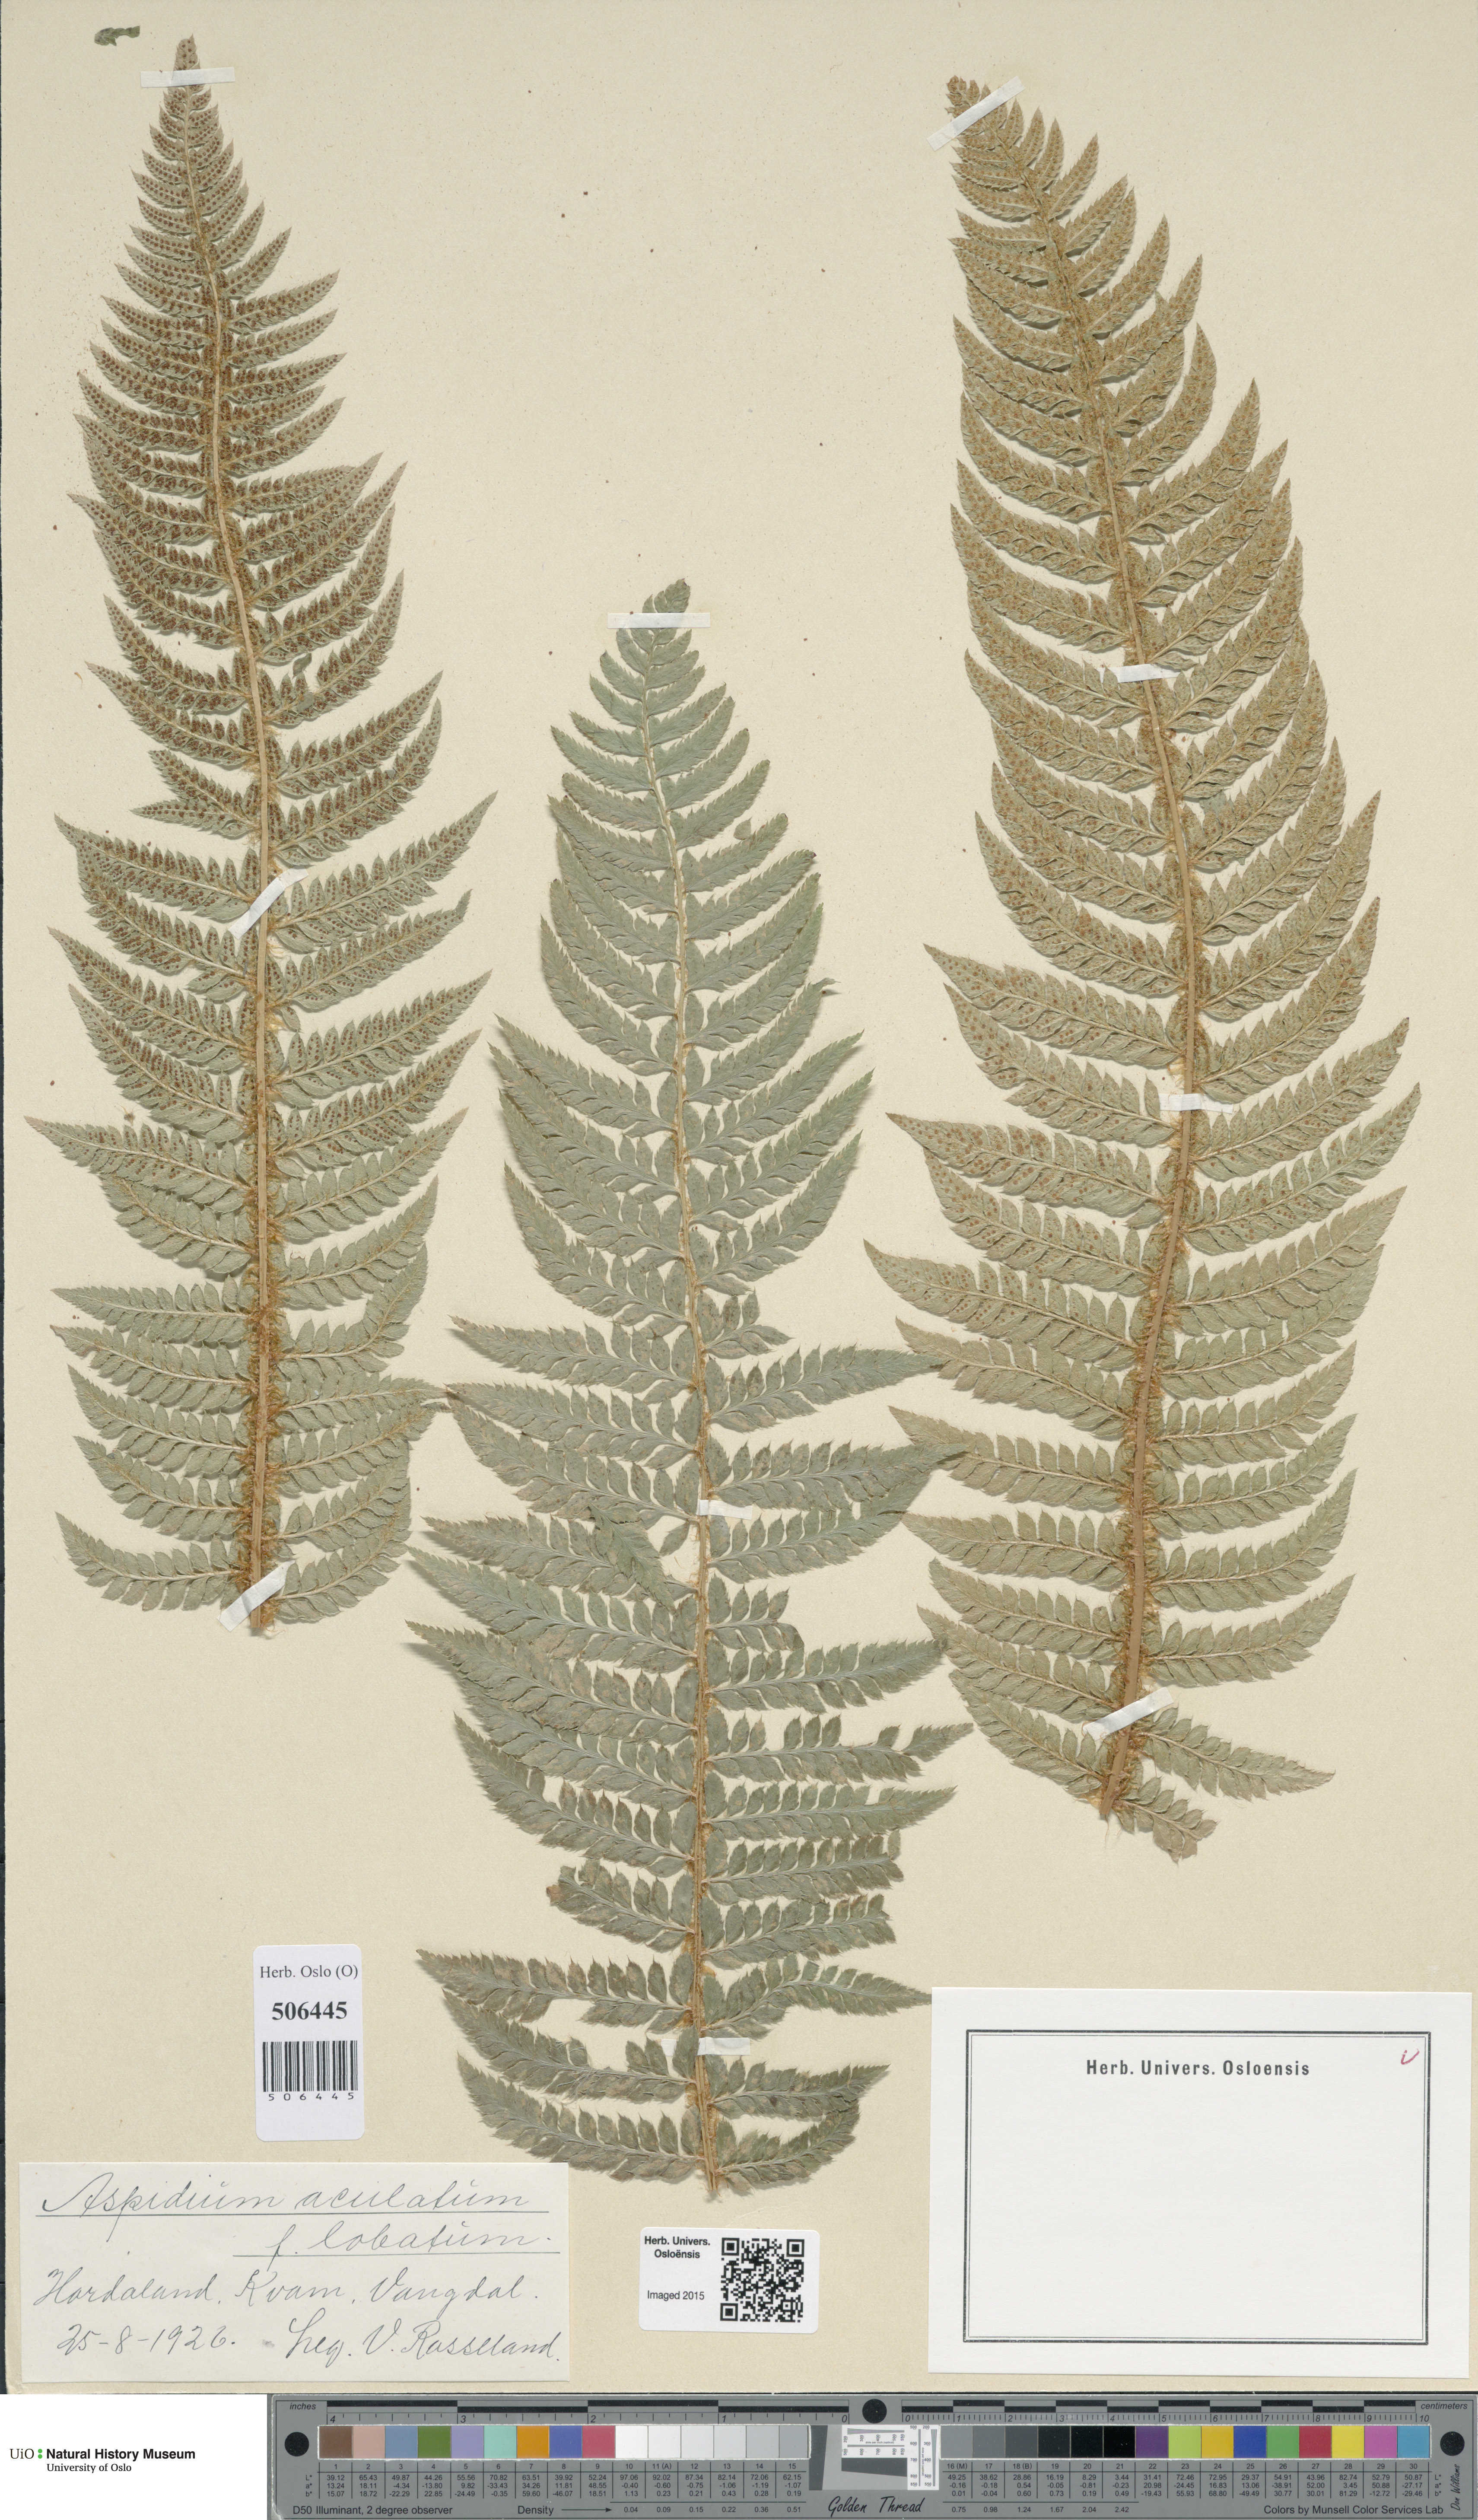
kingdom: Plantae
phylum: Tracheophyta
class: Polypodiopsida
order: Polypodiales
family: Dryopteridaceae
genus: Polystichum
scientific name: Polystichum aculeatum
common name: Hard shield-fern
